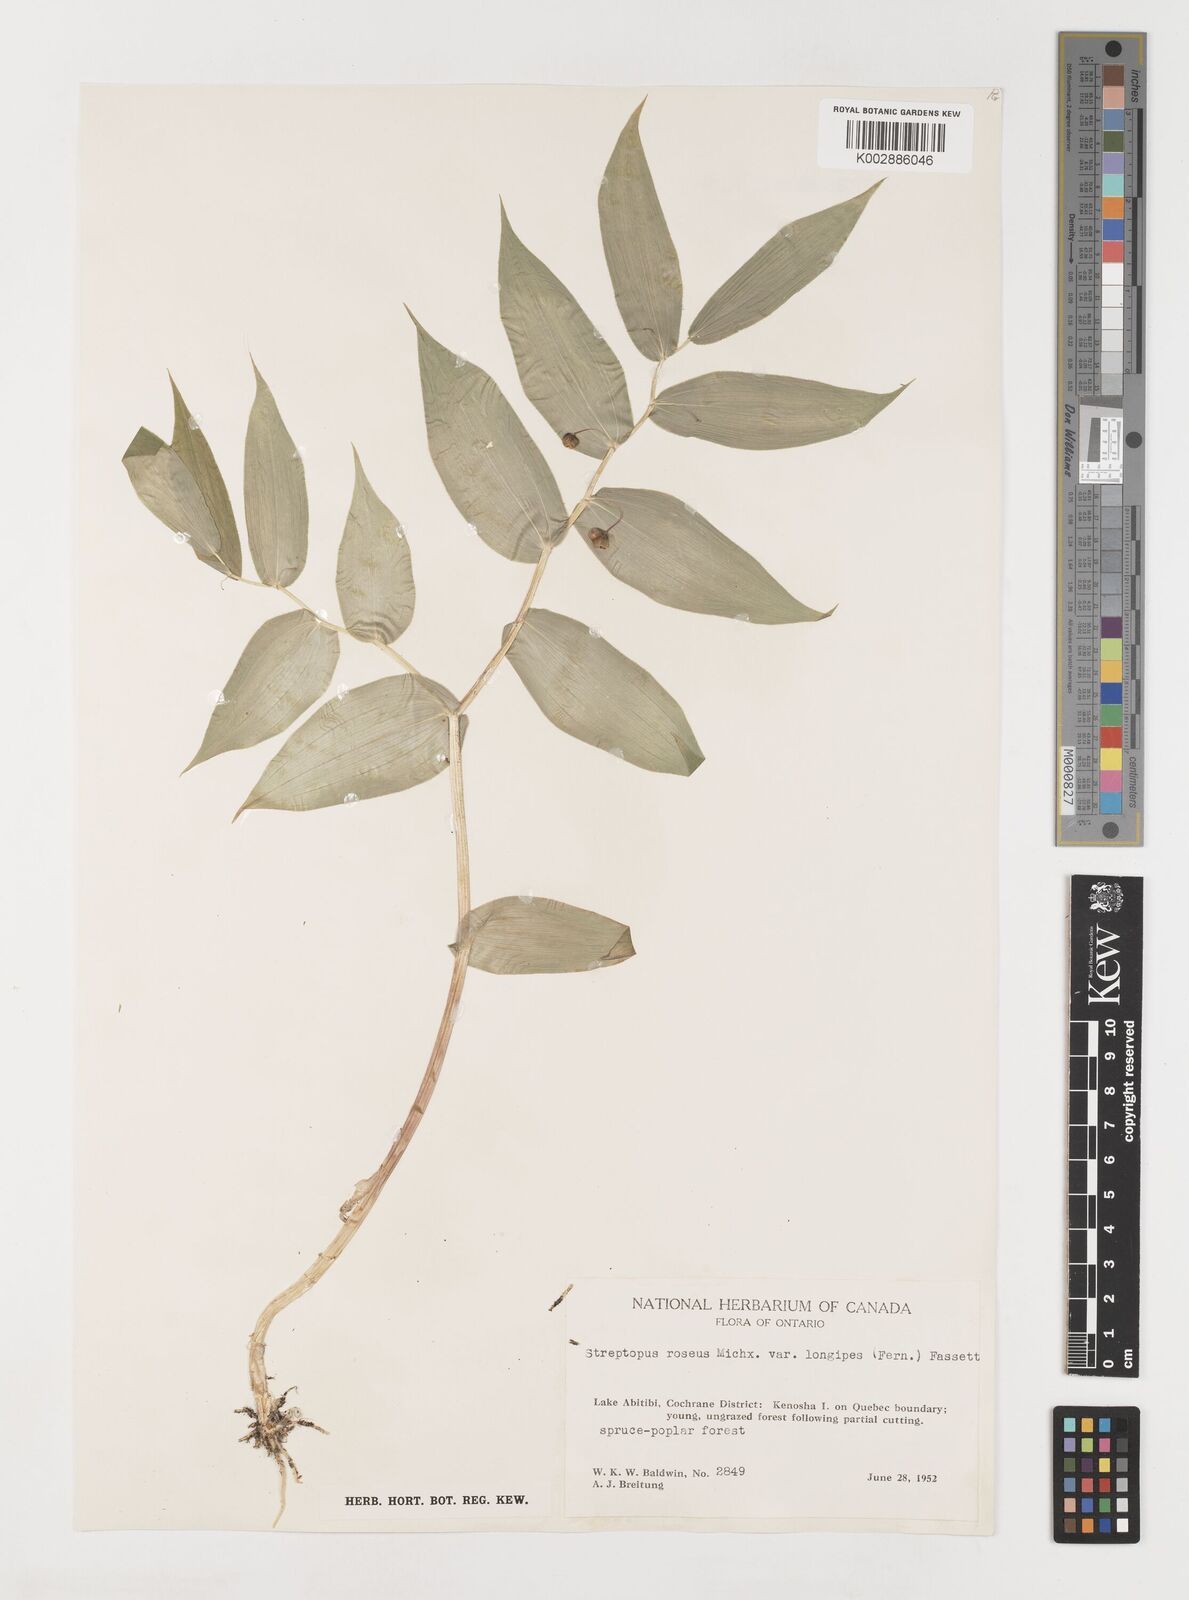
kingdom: Plantae
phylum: Tracheophyta
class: Liliopsida
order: Liliales
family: Liliaceae
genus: Streptopus
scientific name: Streptopus lanceolatus
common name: Rose mandarin
